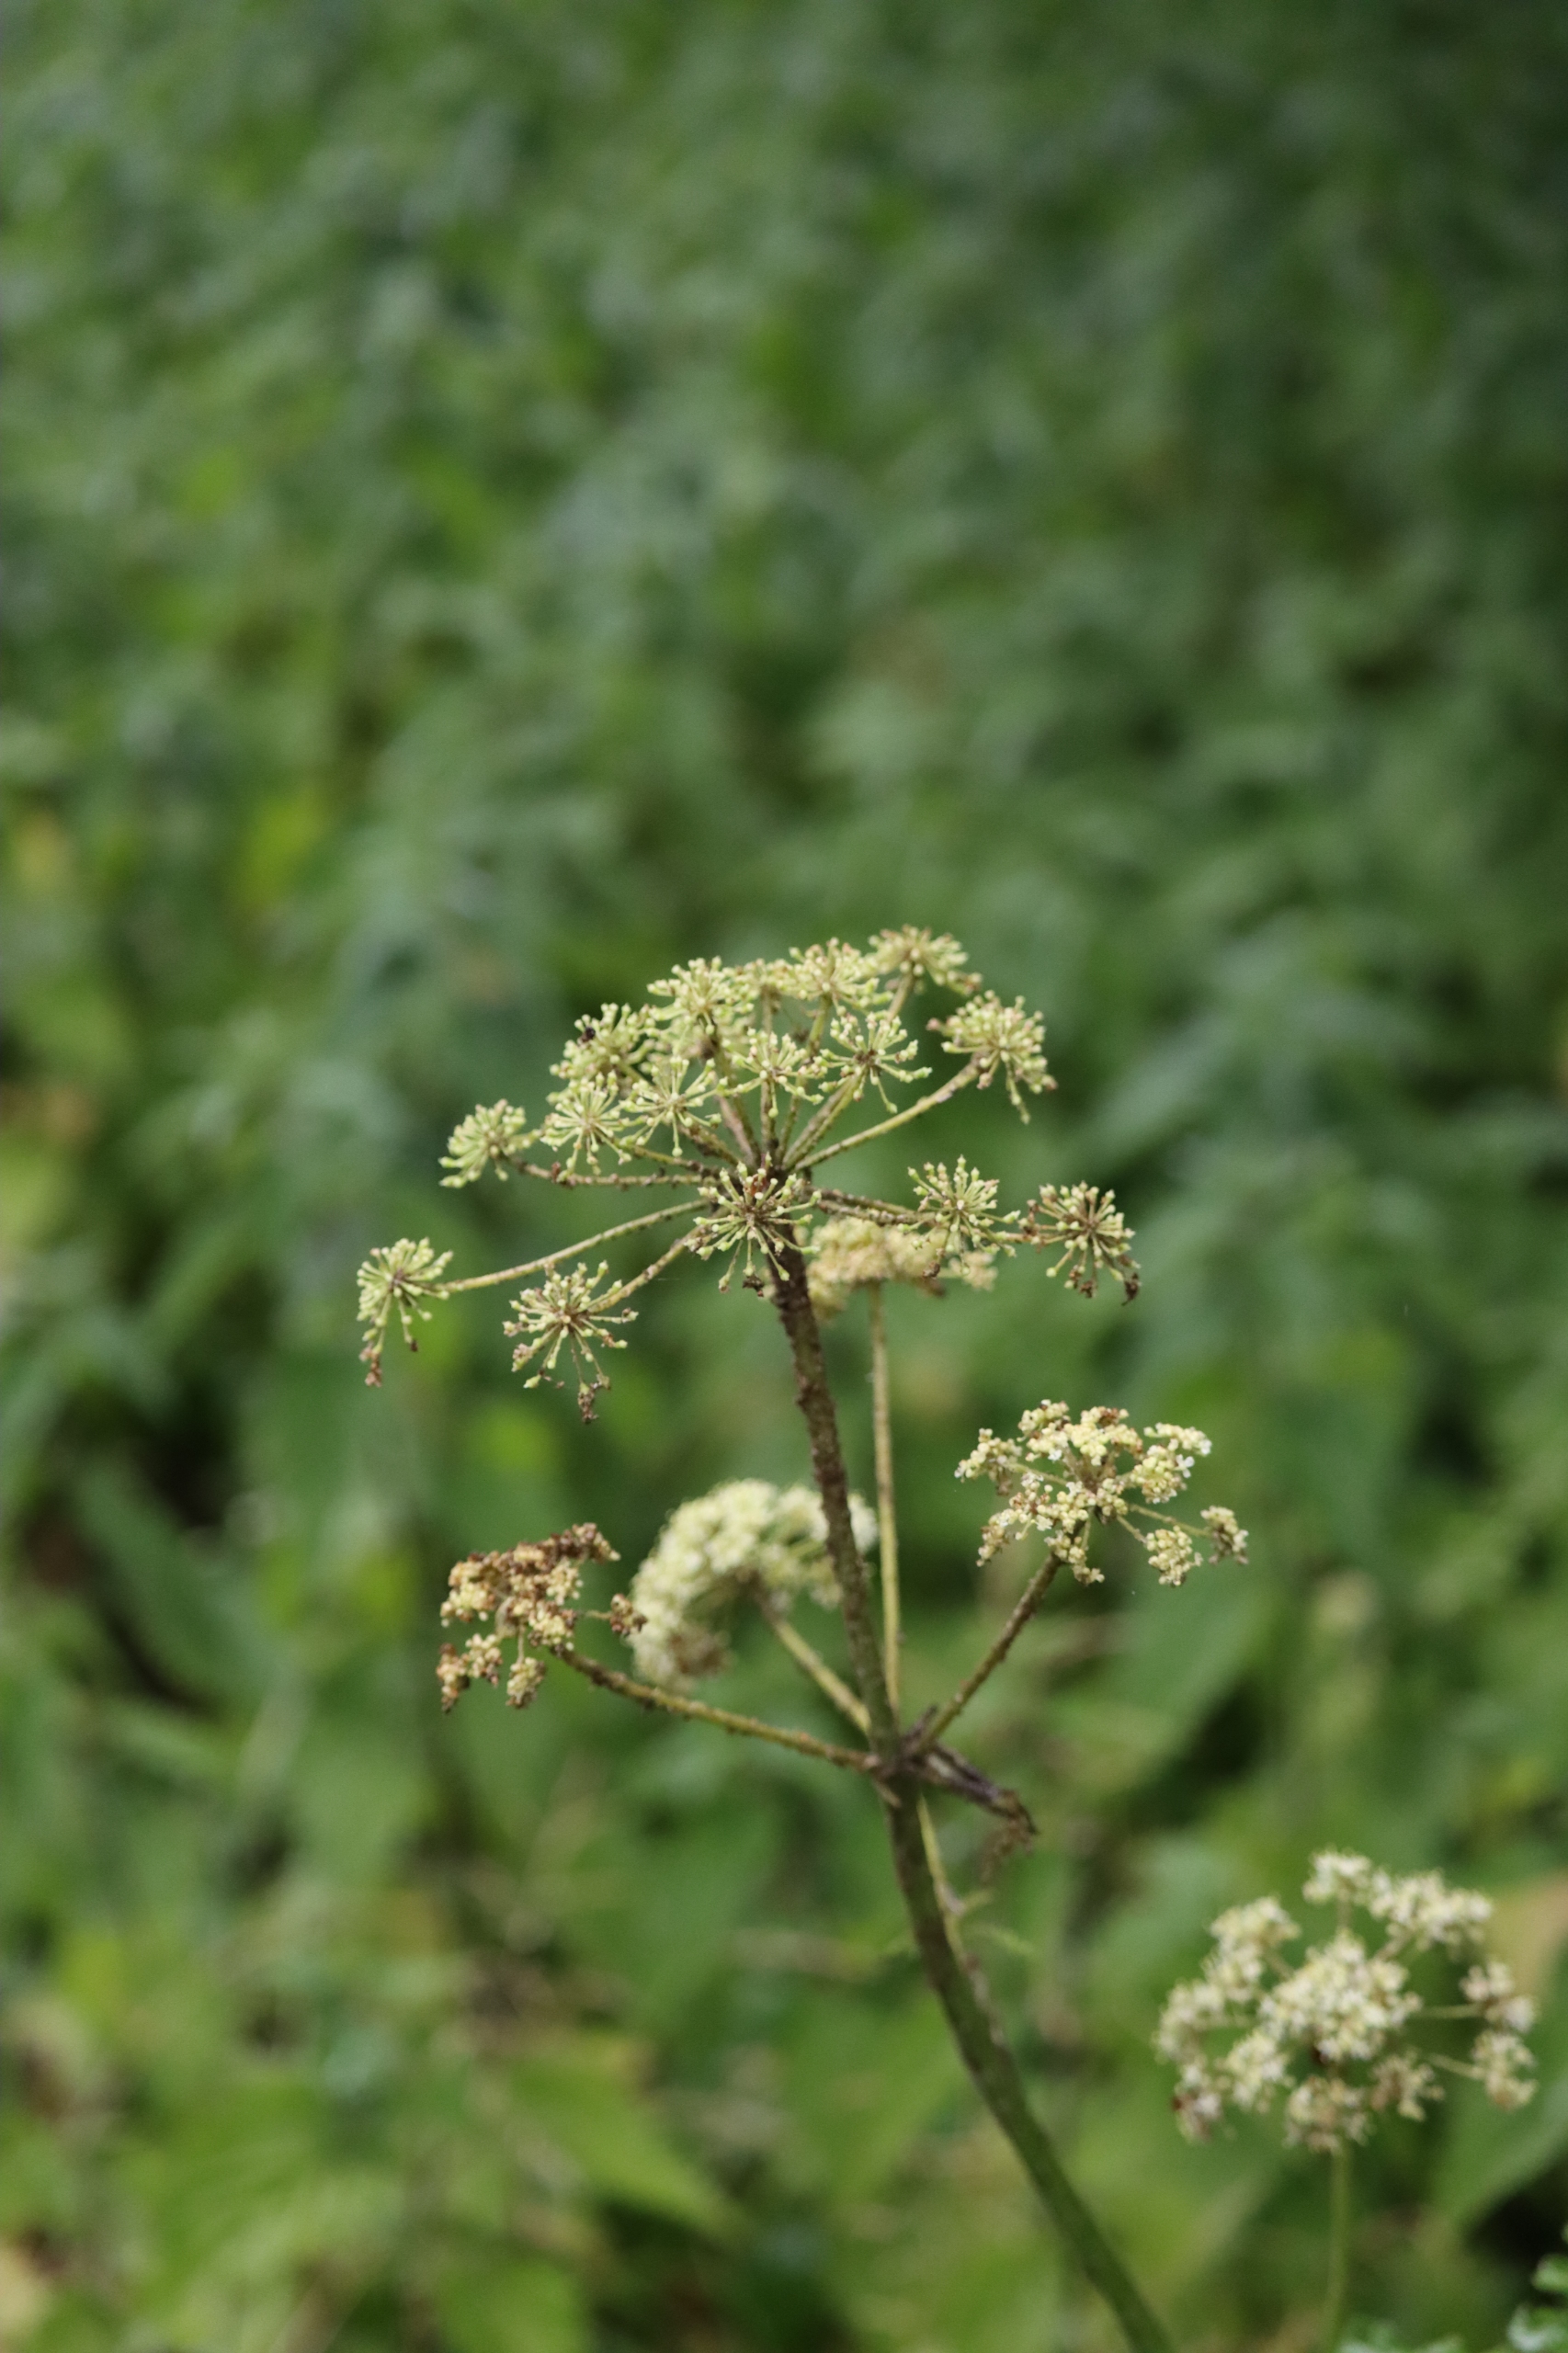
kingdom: Plantae
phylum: Tracheophyta
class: Magnoliopsida
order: Apiales
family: Apiaceae
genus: Heracleum
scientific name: Heracleum sphondylium
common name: Almindelig bjørneklo
